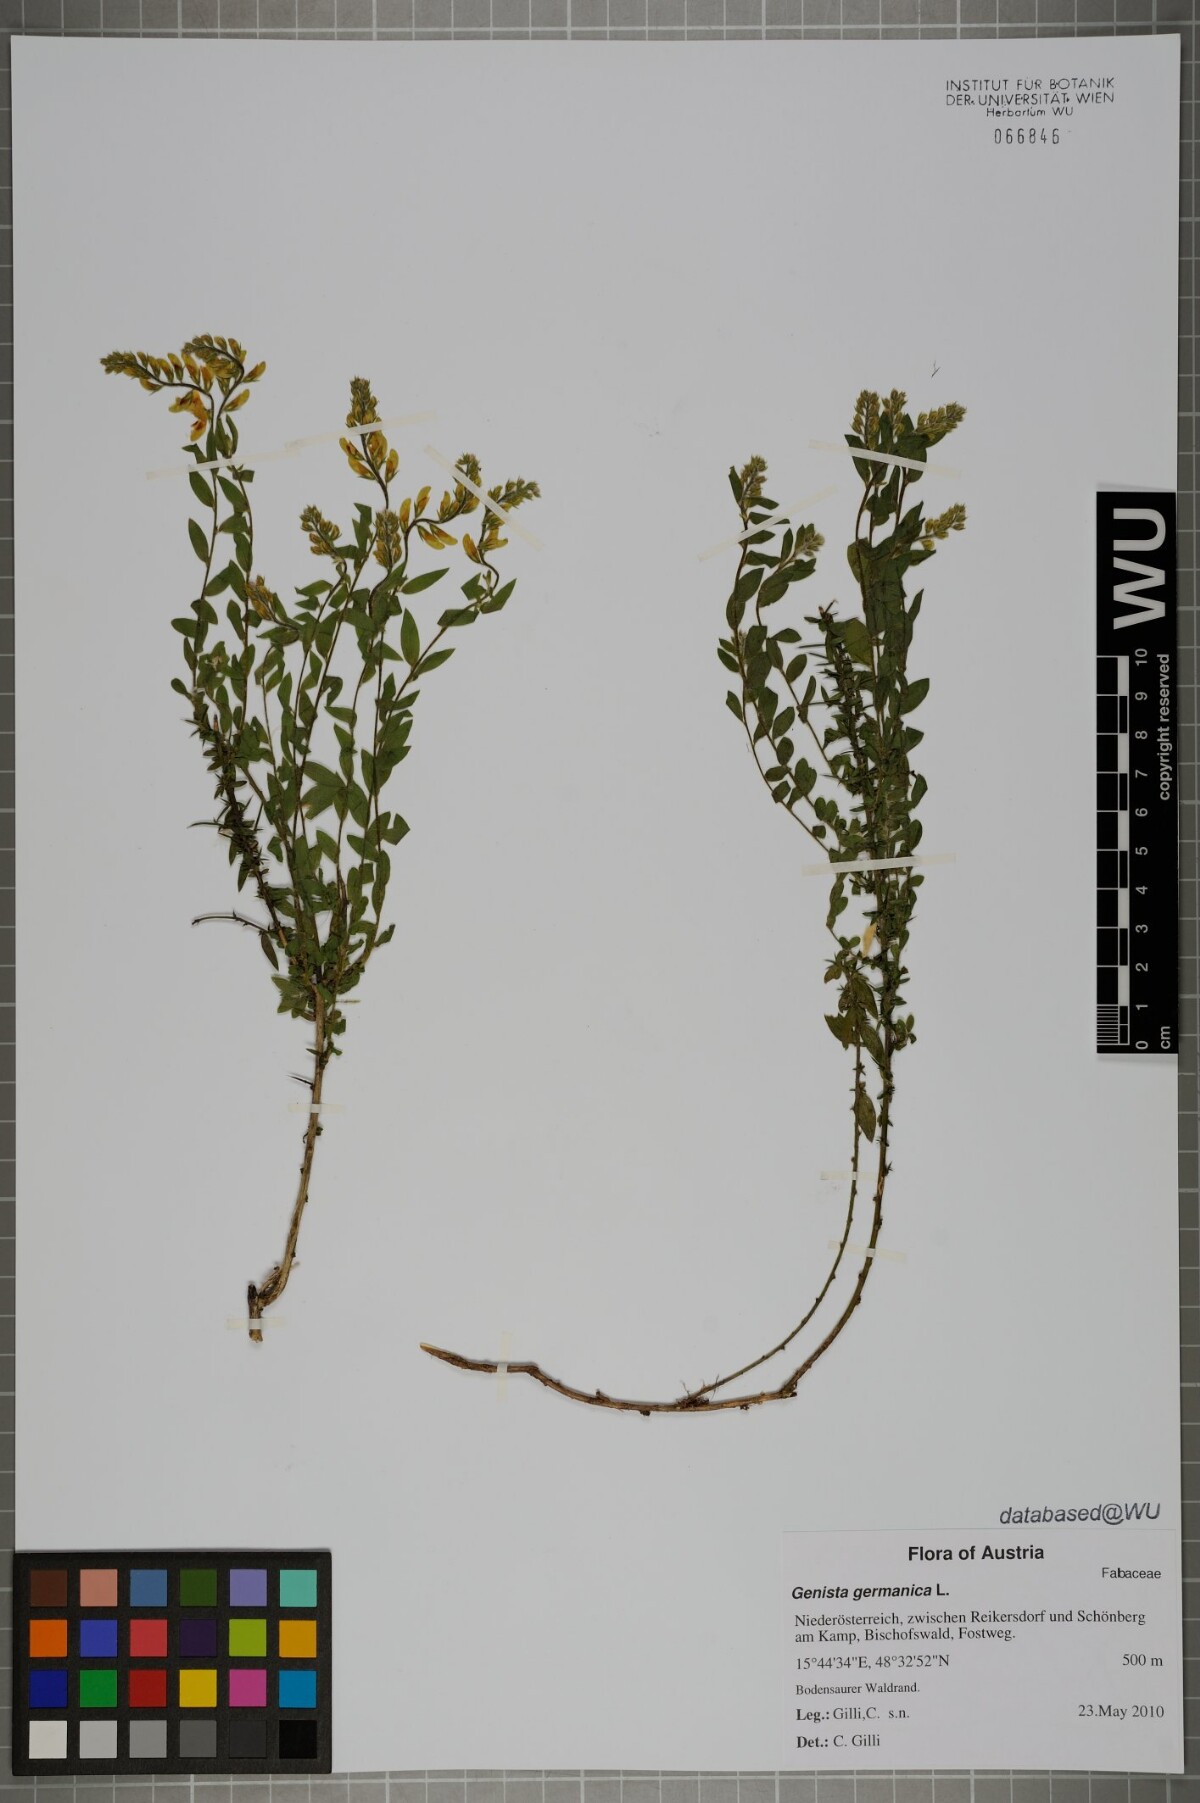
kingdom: Plantae
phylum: Tracheophyta
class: Magnoliopsida
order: Fabales
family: Fabaceae
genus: Genista
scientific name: Genista germanica
